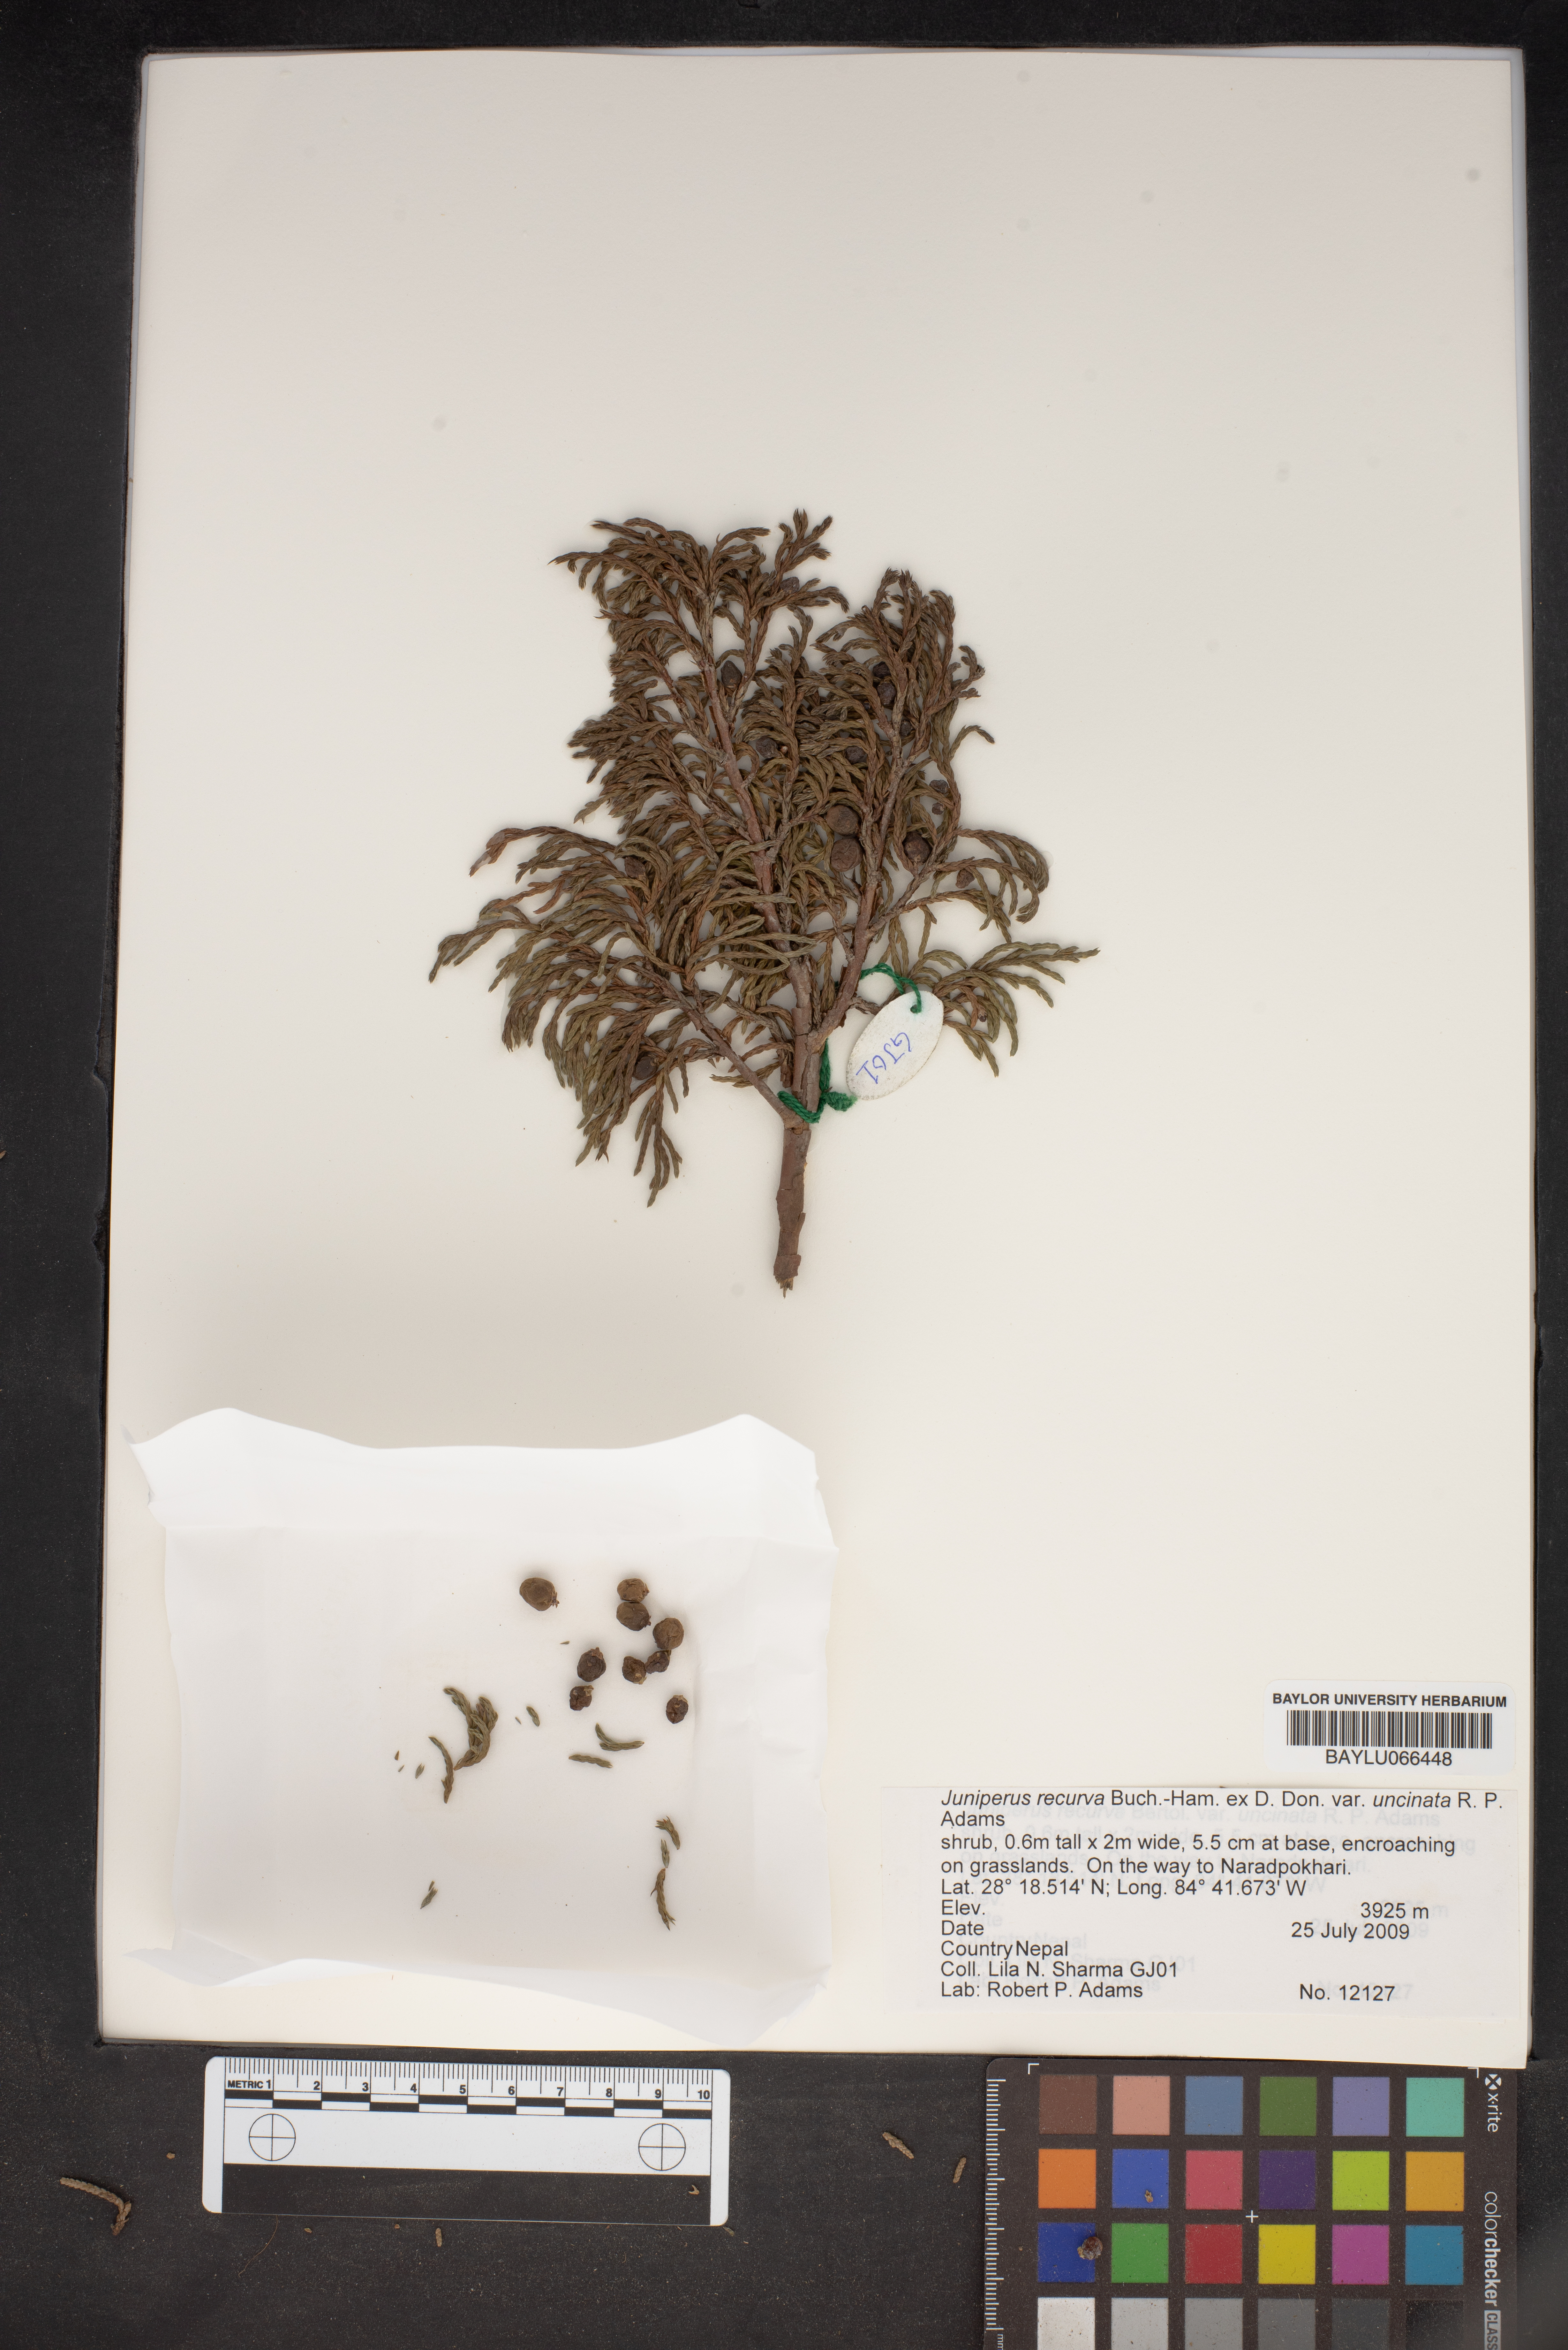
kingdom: Plantae
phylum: Tracheophyta
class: Pinopsida
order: Pinales
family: Cupressaceae
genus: Juniperus
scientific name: Juniperus recurva
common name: Drooping juniper
